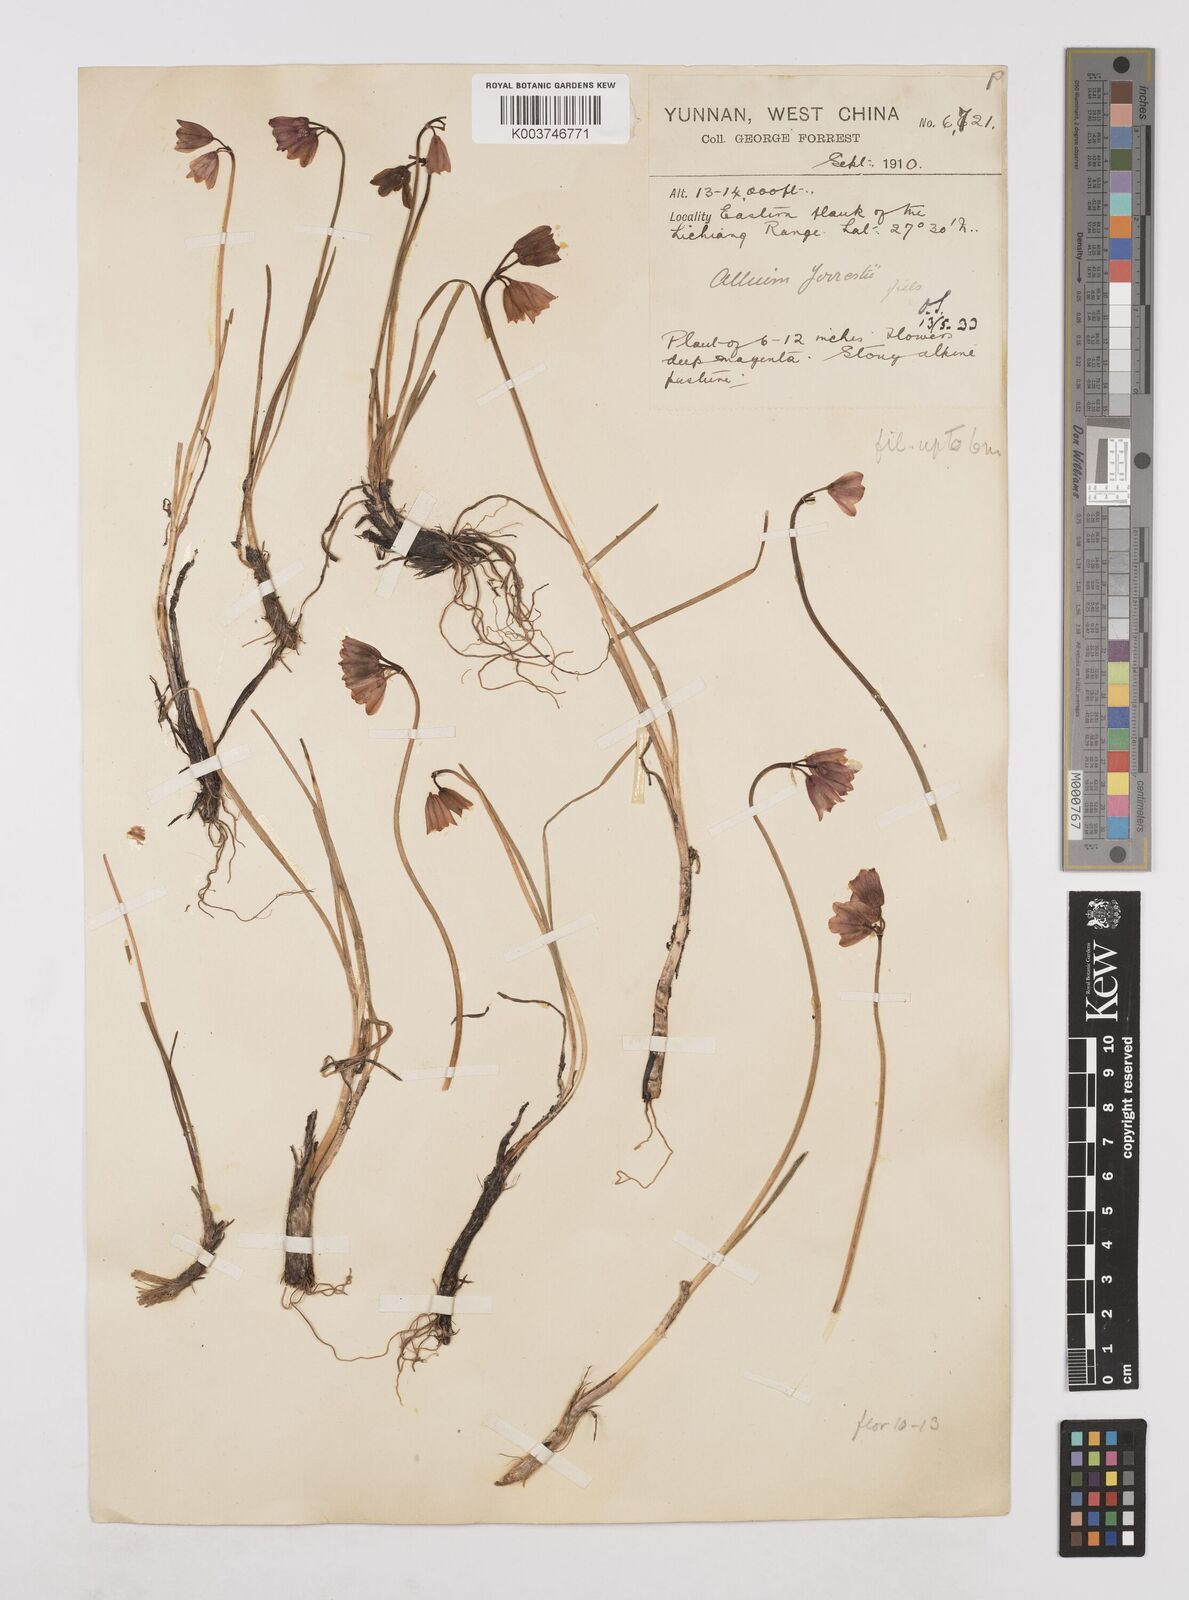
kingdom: Plantae
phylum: Tracheophyta
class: Liliopsida
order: Asparagales
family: Amaryllidaceae
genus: Allium
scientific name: Allium forrestii
